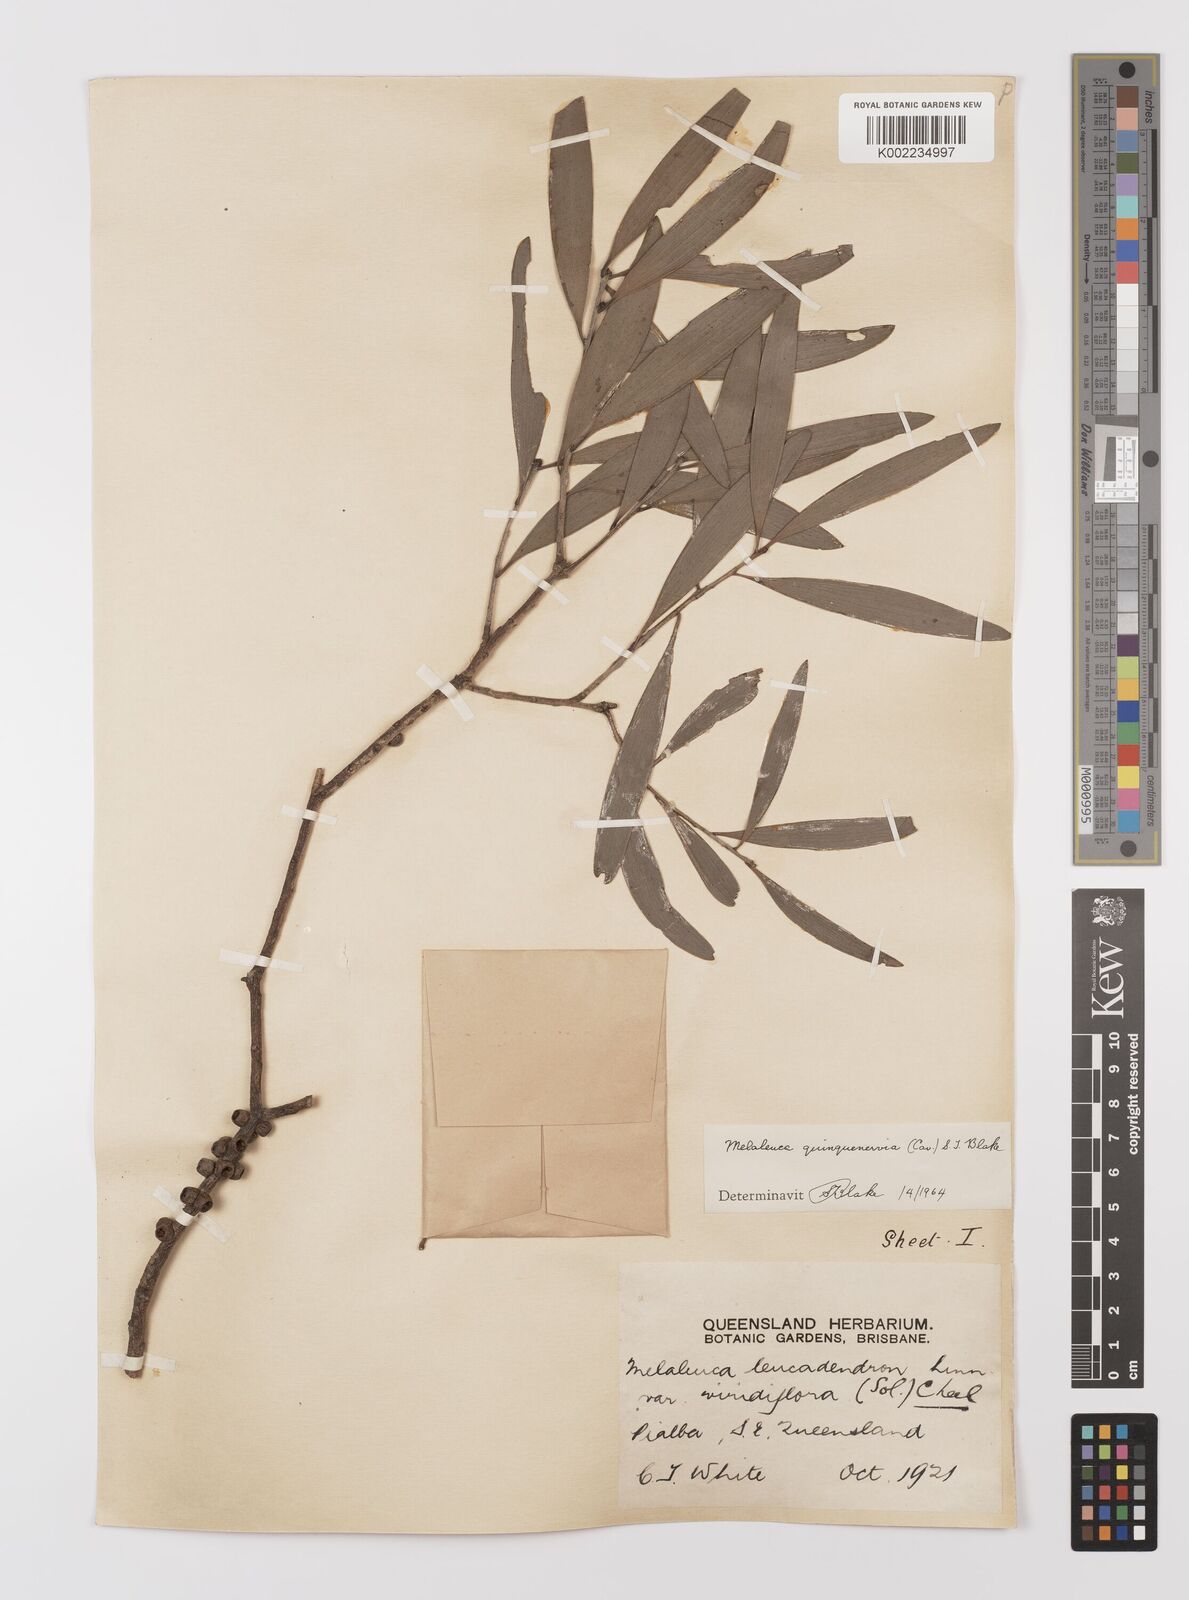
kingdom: Plantae
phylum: Tracheophyta
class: Magnoliopsida
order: Myrtales
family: Myrtaceae
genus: Melaleuca
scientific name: Melaleuca quinquenervia
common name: Punktree
